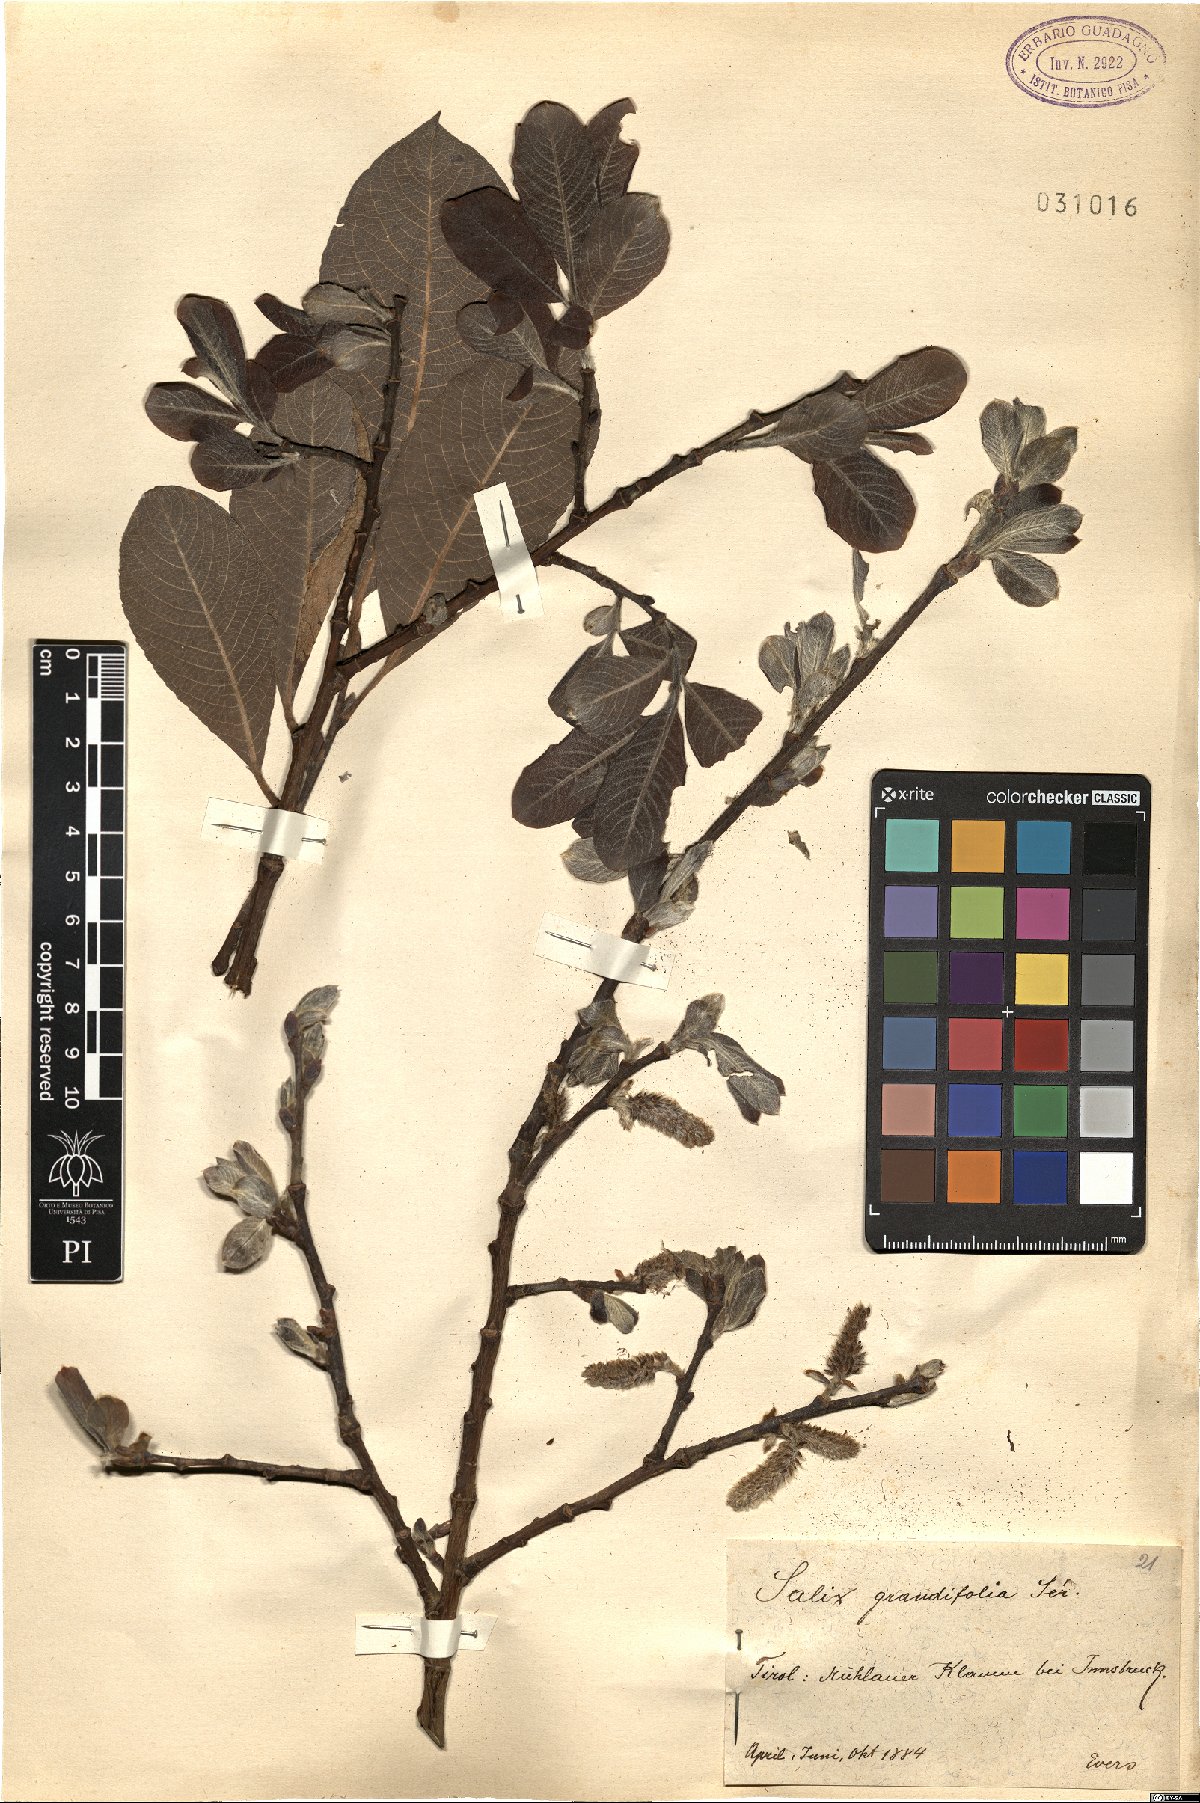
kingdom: Plantae
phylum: Tracheophyta
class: Magnoliopsida
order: Malpighiales
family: Salicaceae
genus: Salix
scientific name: Salix appendiculata
